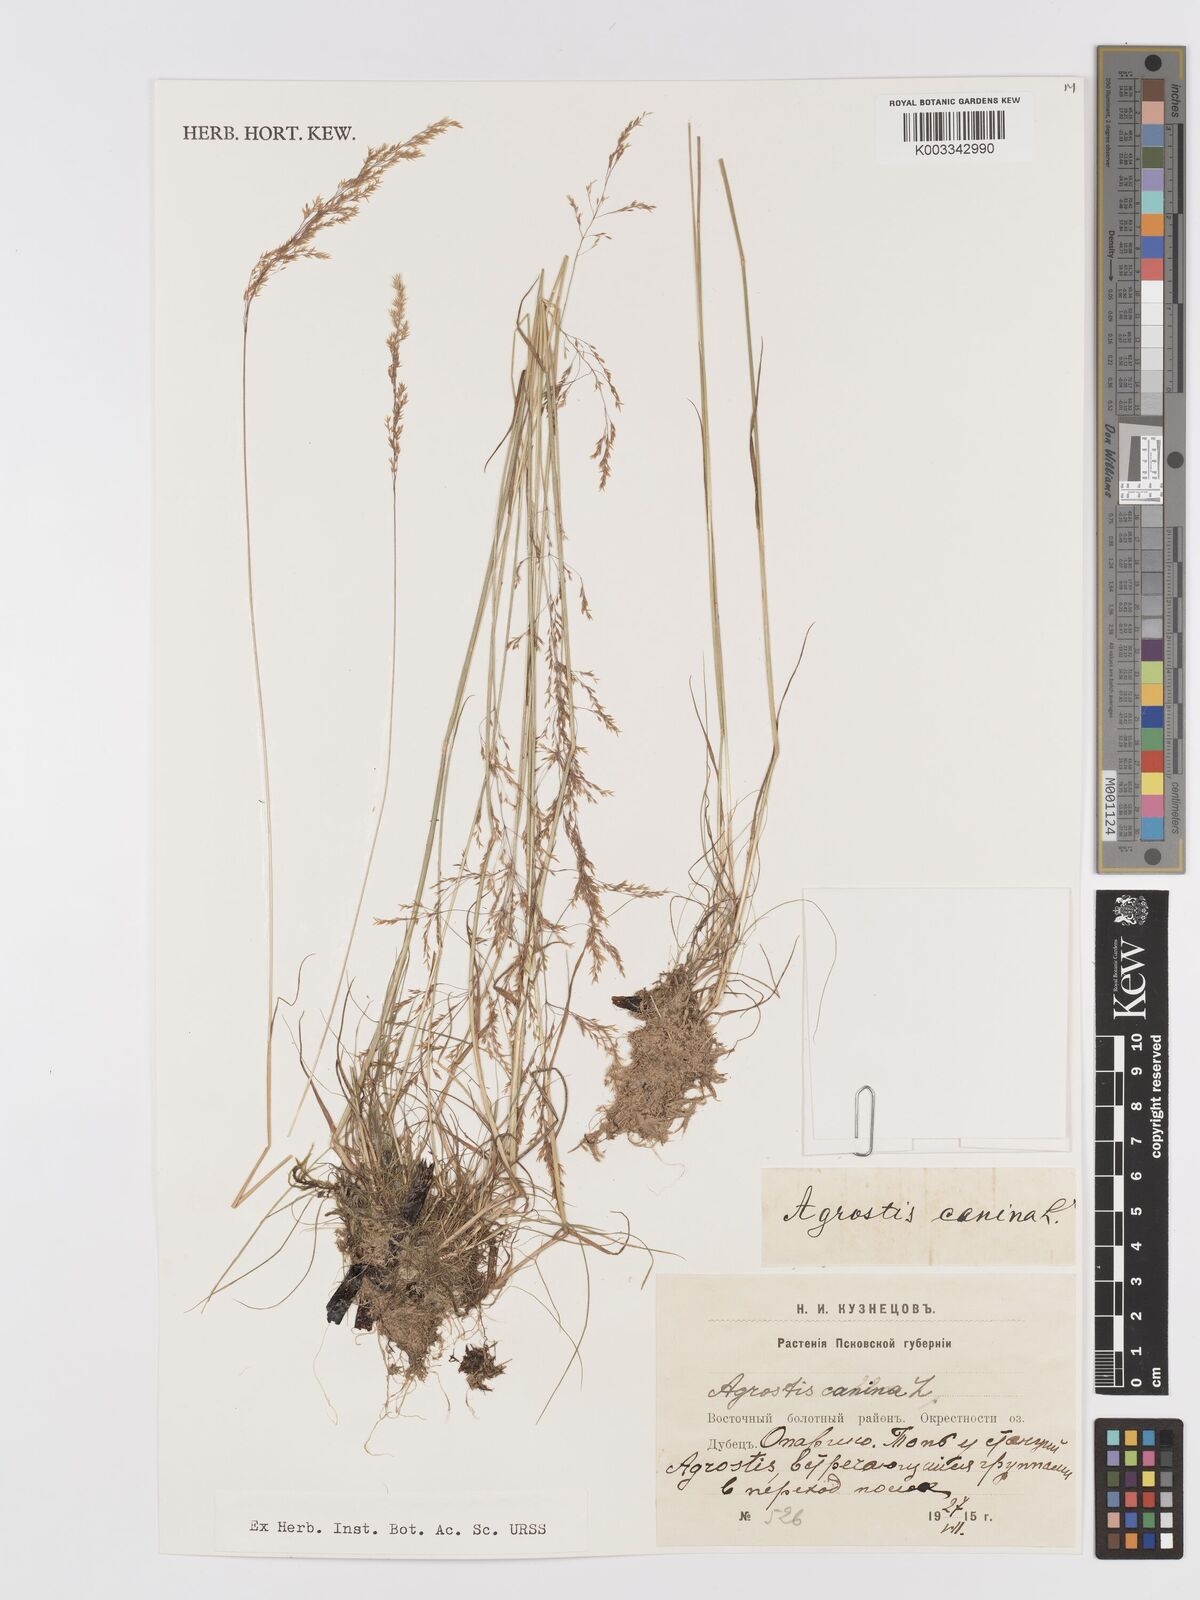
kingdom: Plantae
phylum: Tracheophyta
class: Liliopsida
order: Poales
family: Poaceae
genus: Agrostis
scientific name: Agrostis canina
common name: Velvet bent
